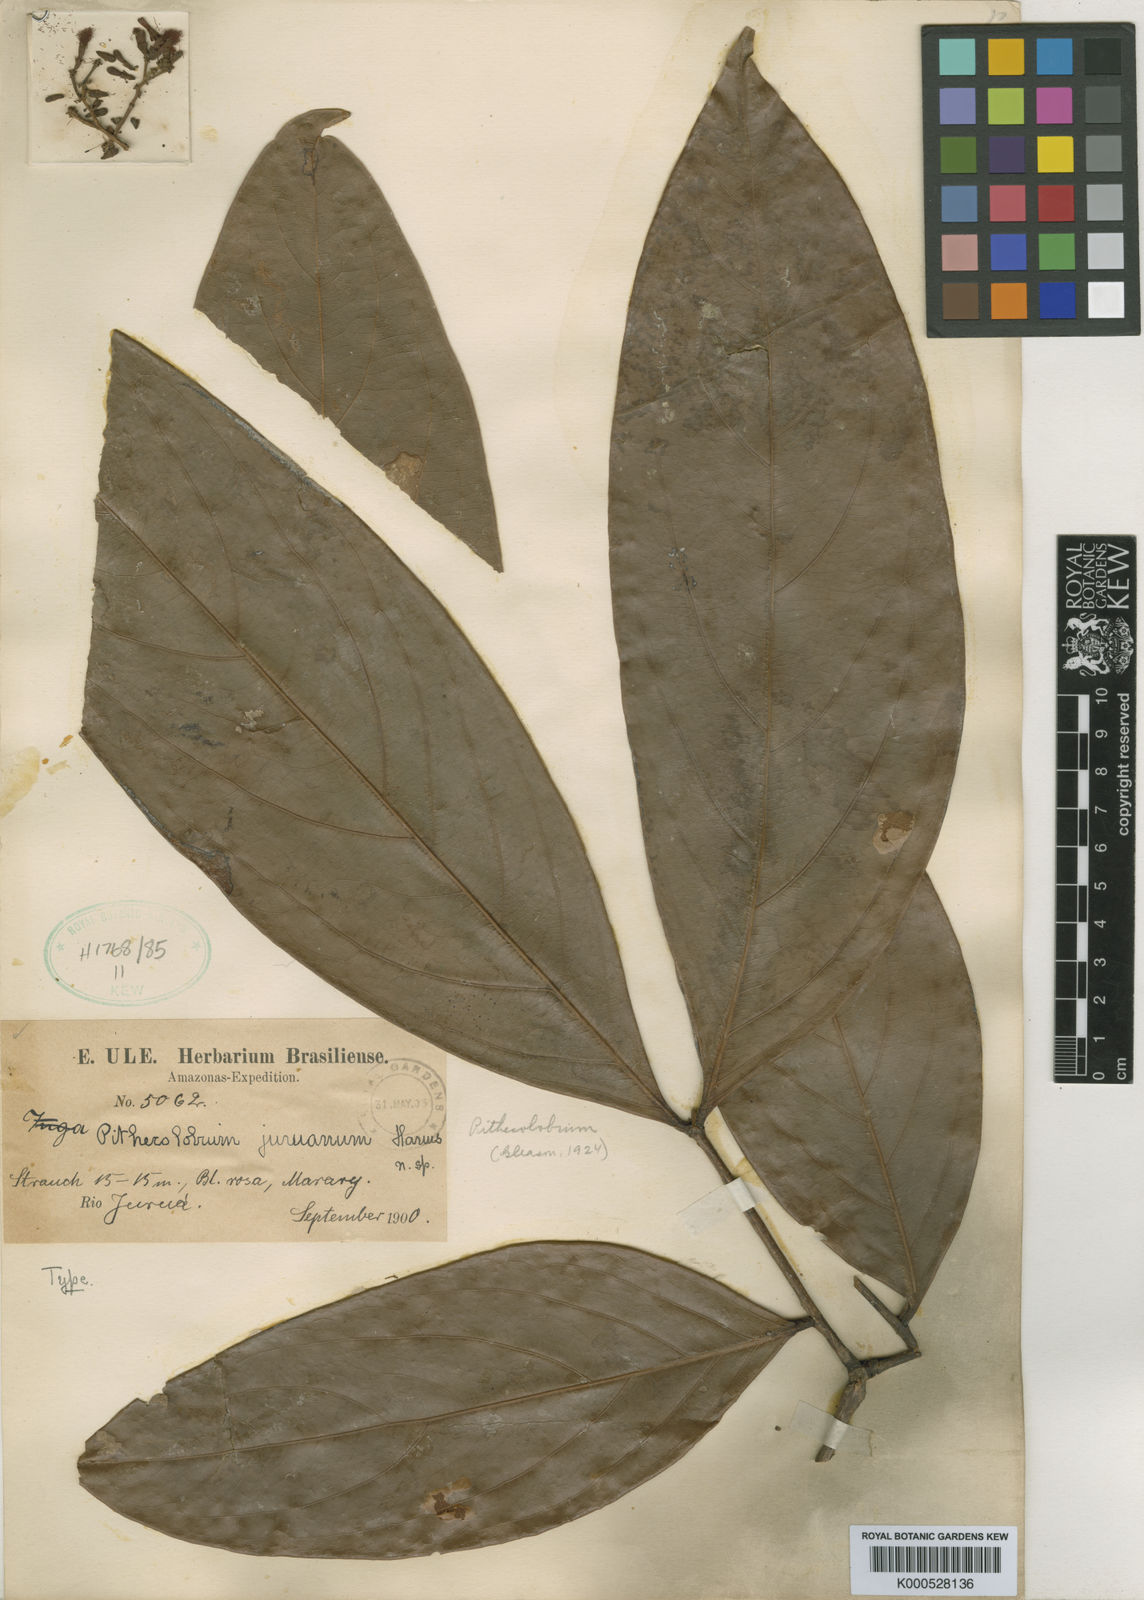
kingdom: Plantae
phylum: Tracheophyta
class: Magnoliopsida
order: Fabales
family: Fabaceae
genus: Zygia
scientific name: Zygia juruana
